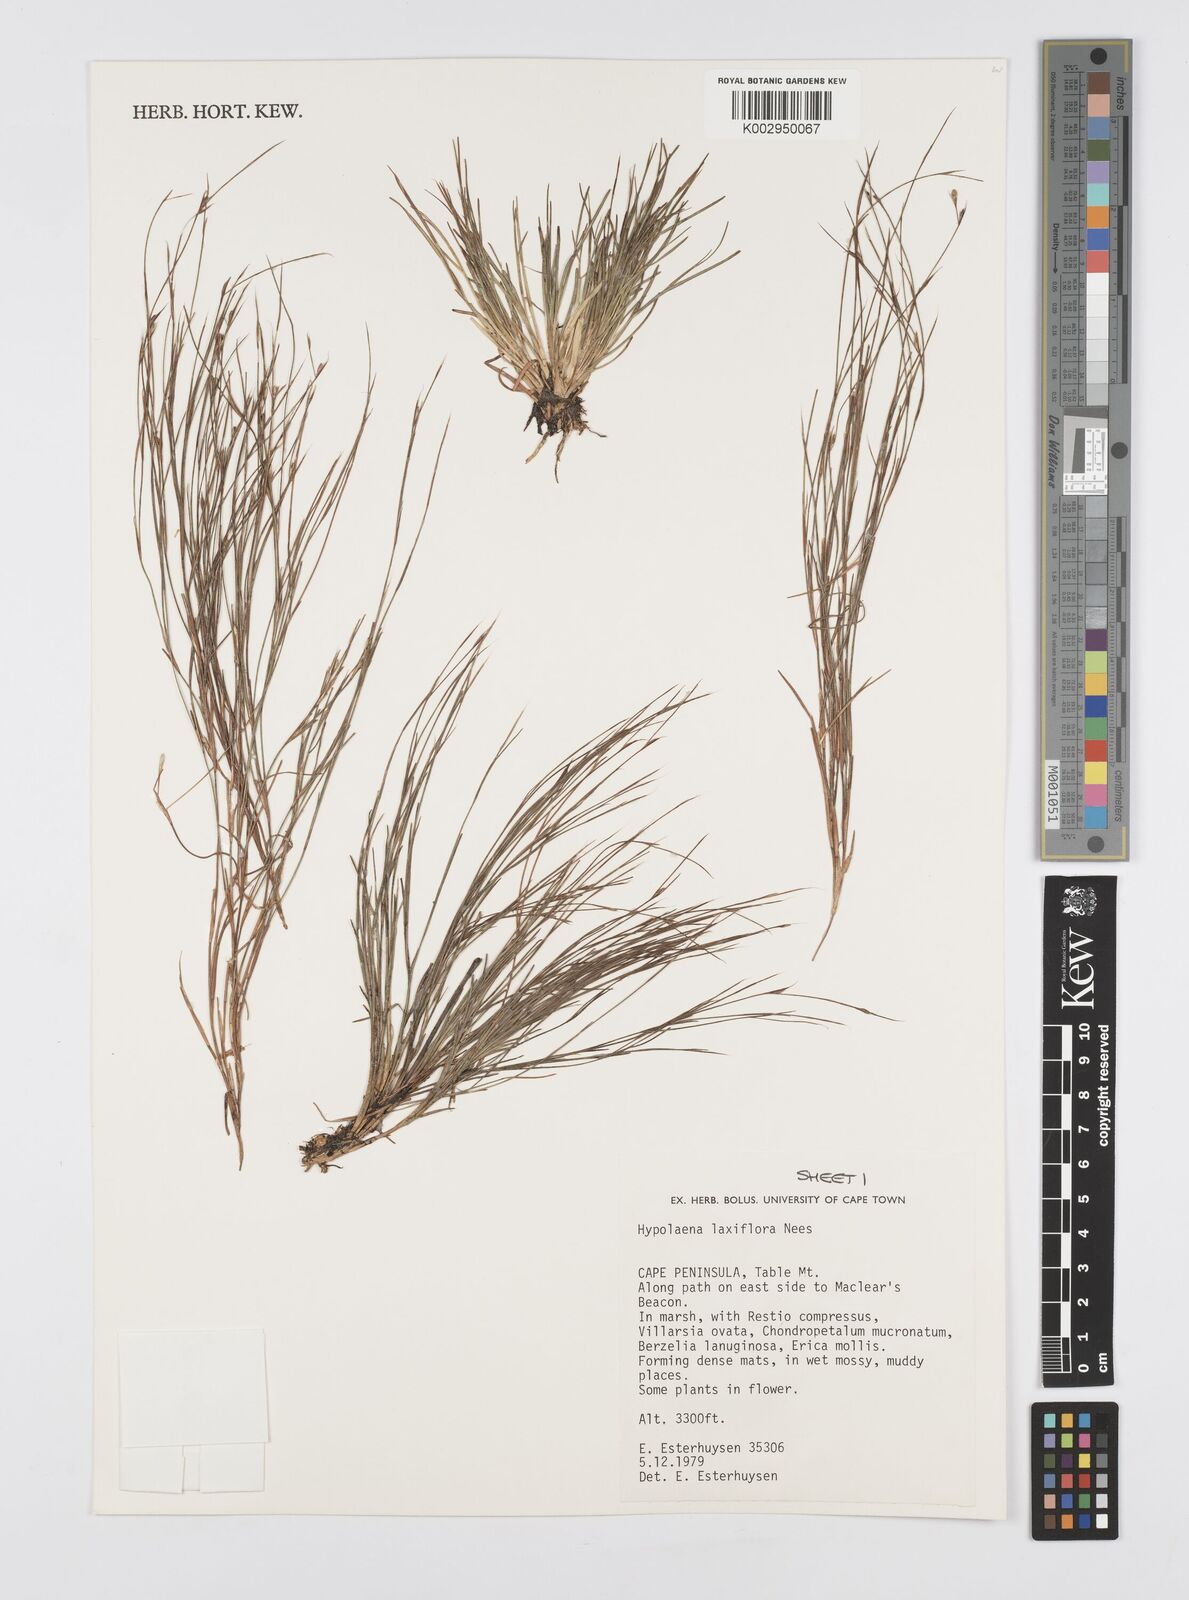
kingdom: Plantae
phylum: Tracheophyta
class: Liliopsida
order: Poales
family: Restionaceae
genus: Anthochortus
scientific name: Anthochortus laxiflorus
